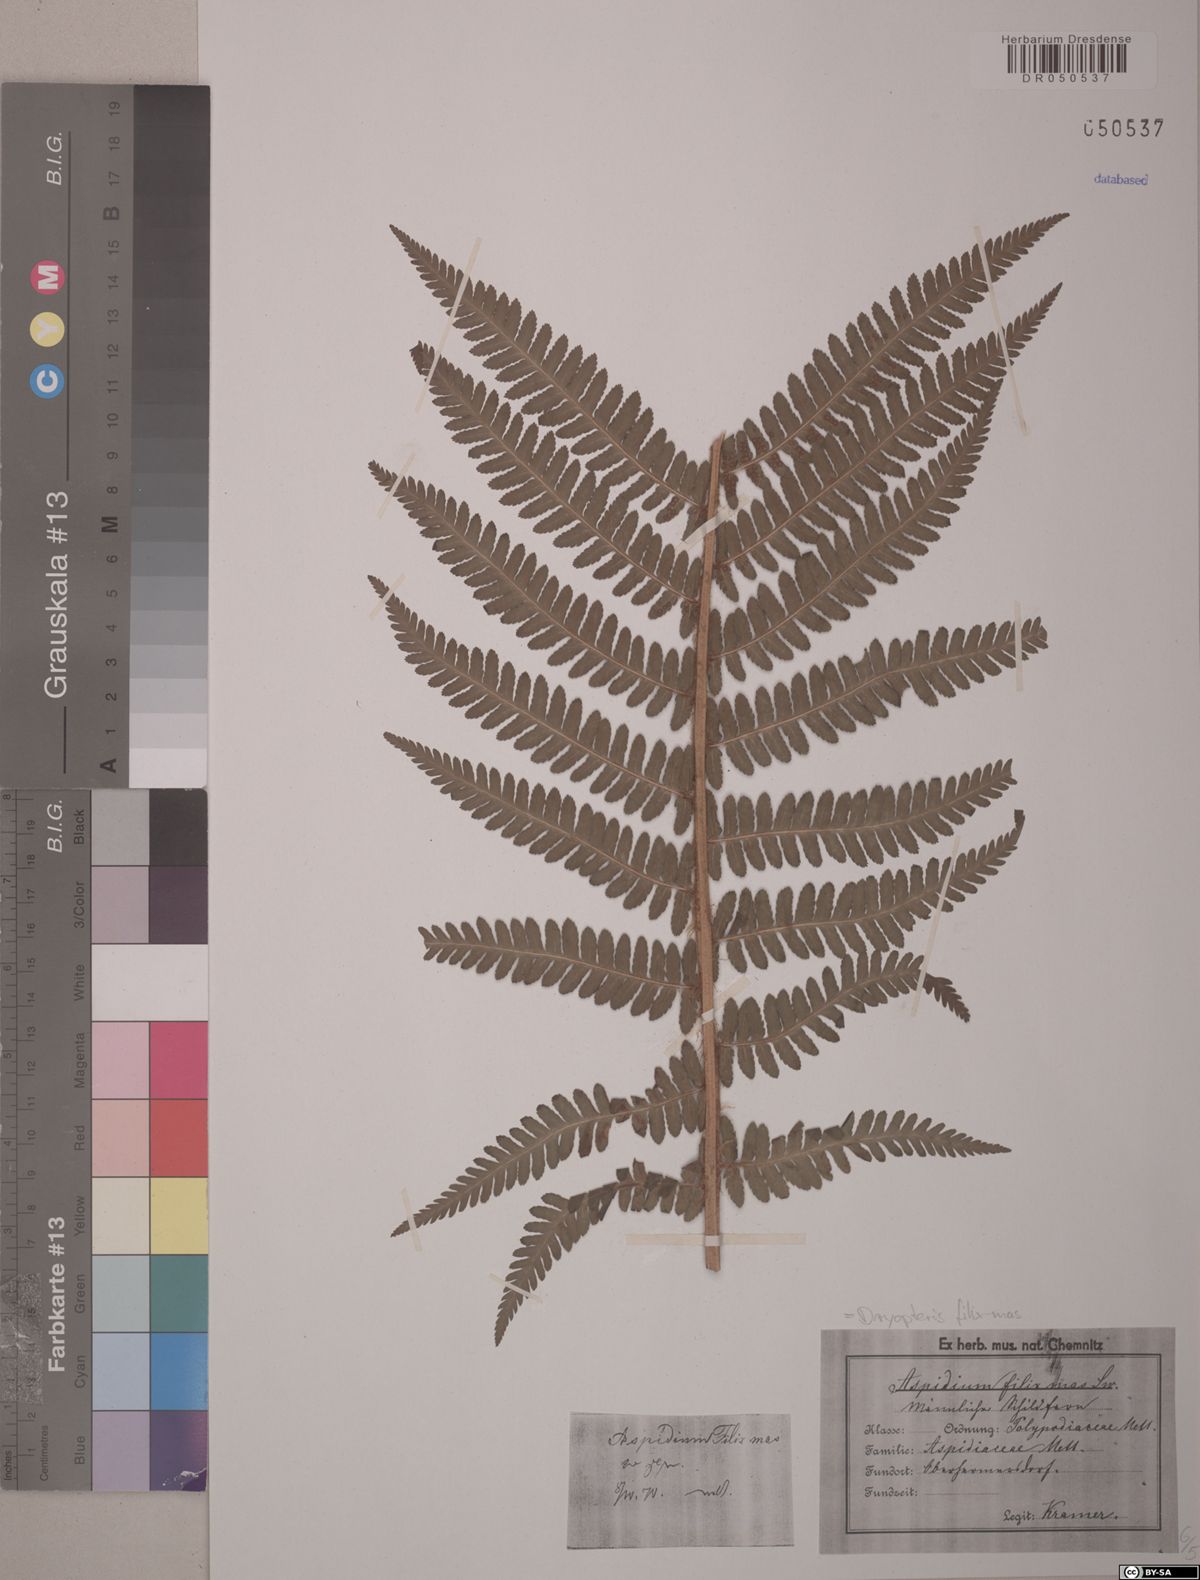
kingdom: Plantae
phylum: Tracheophyta
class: Polypodiopsida
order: Polypodiales
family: Dryopteridaceae
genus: Dryopteris
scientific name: Dryopteris filix-mas
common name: Male fern
